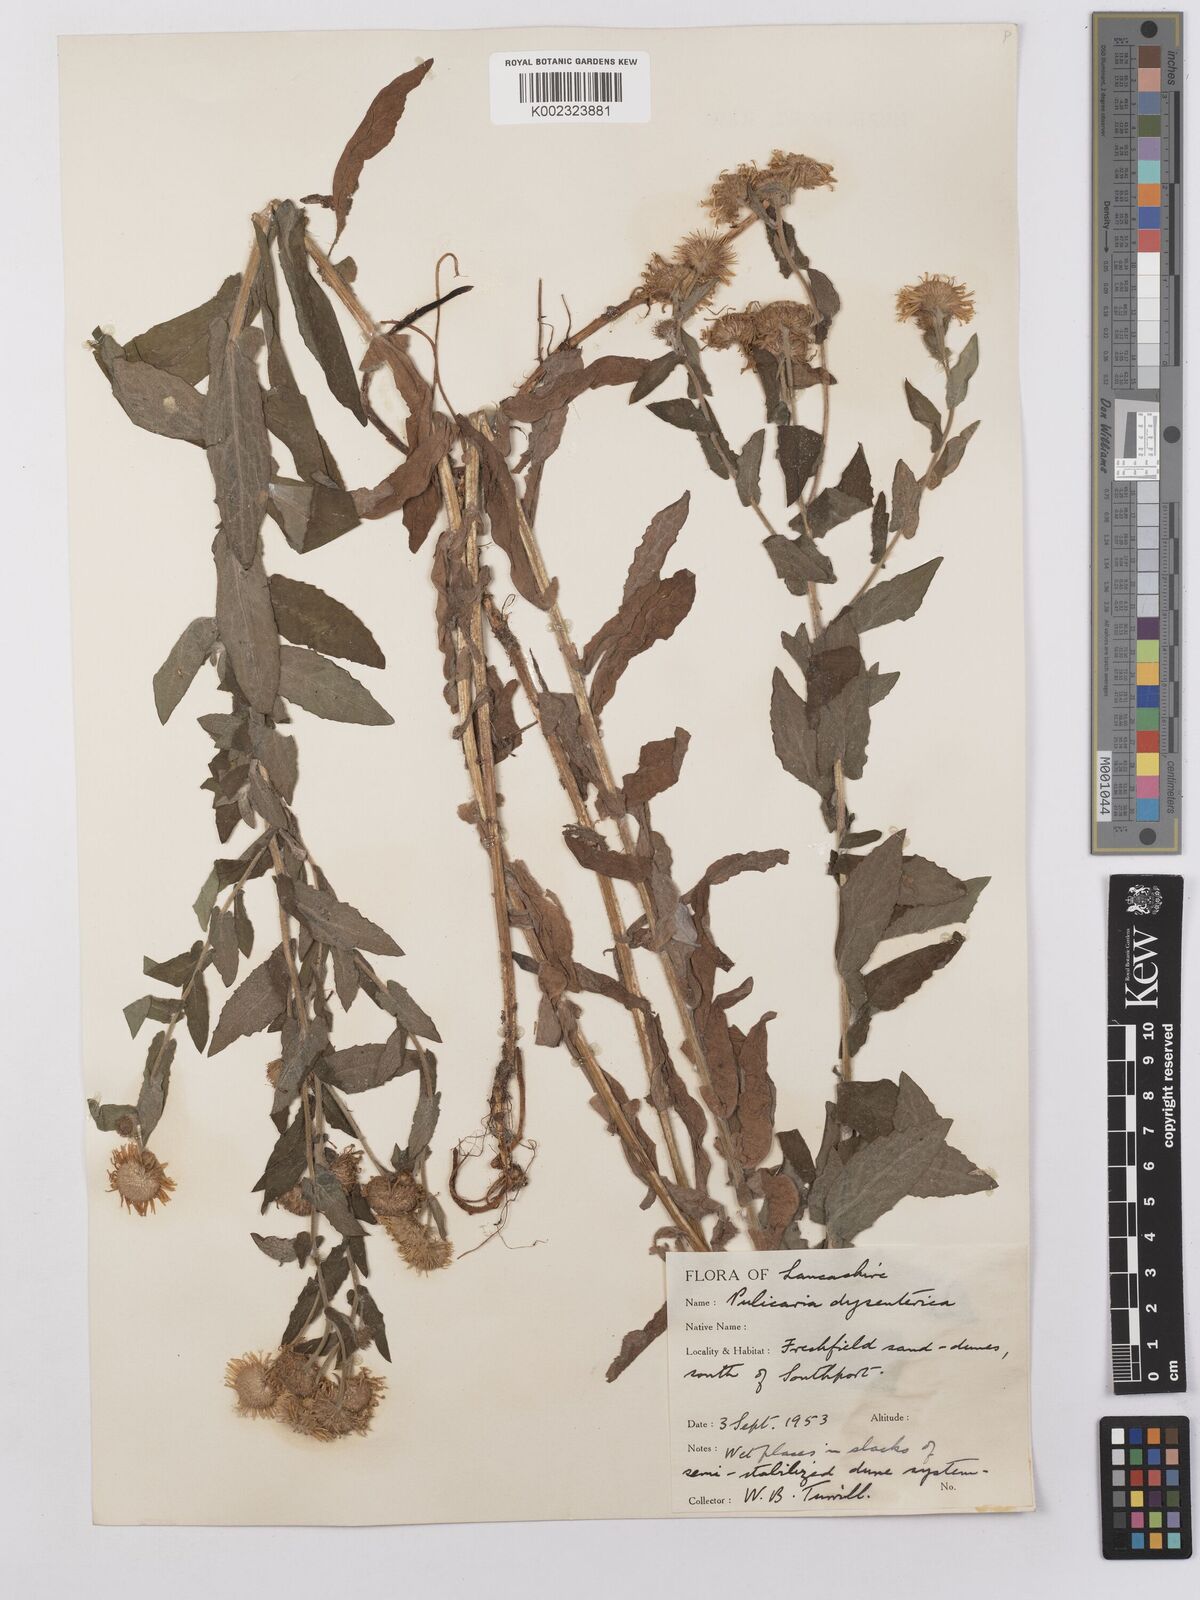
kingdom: Plantae
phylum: Tracheophyta
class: Magnoliopsida
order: Asterales
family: Asteraceae
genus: Pulicaria
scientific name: Pulicaria dysenterica
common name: Common fleabane
